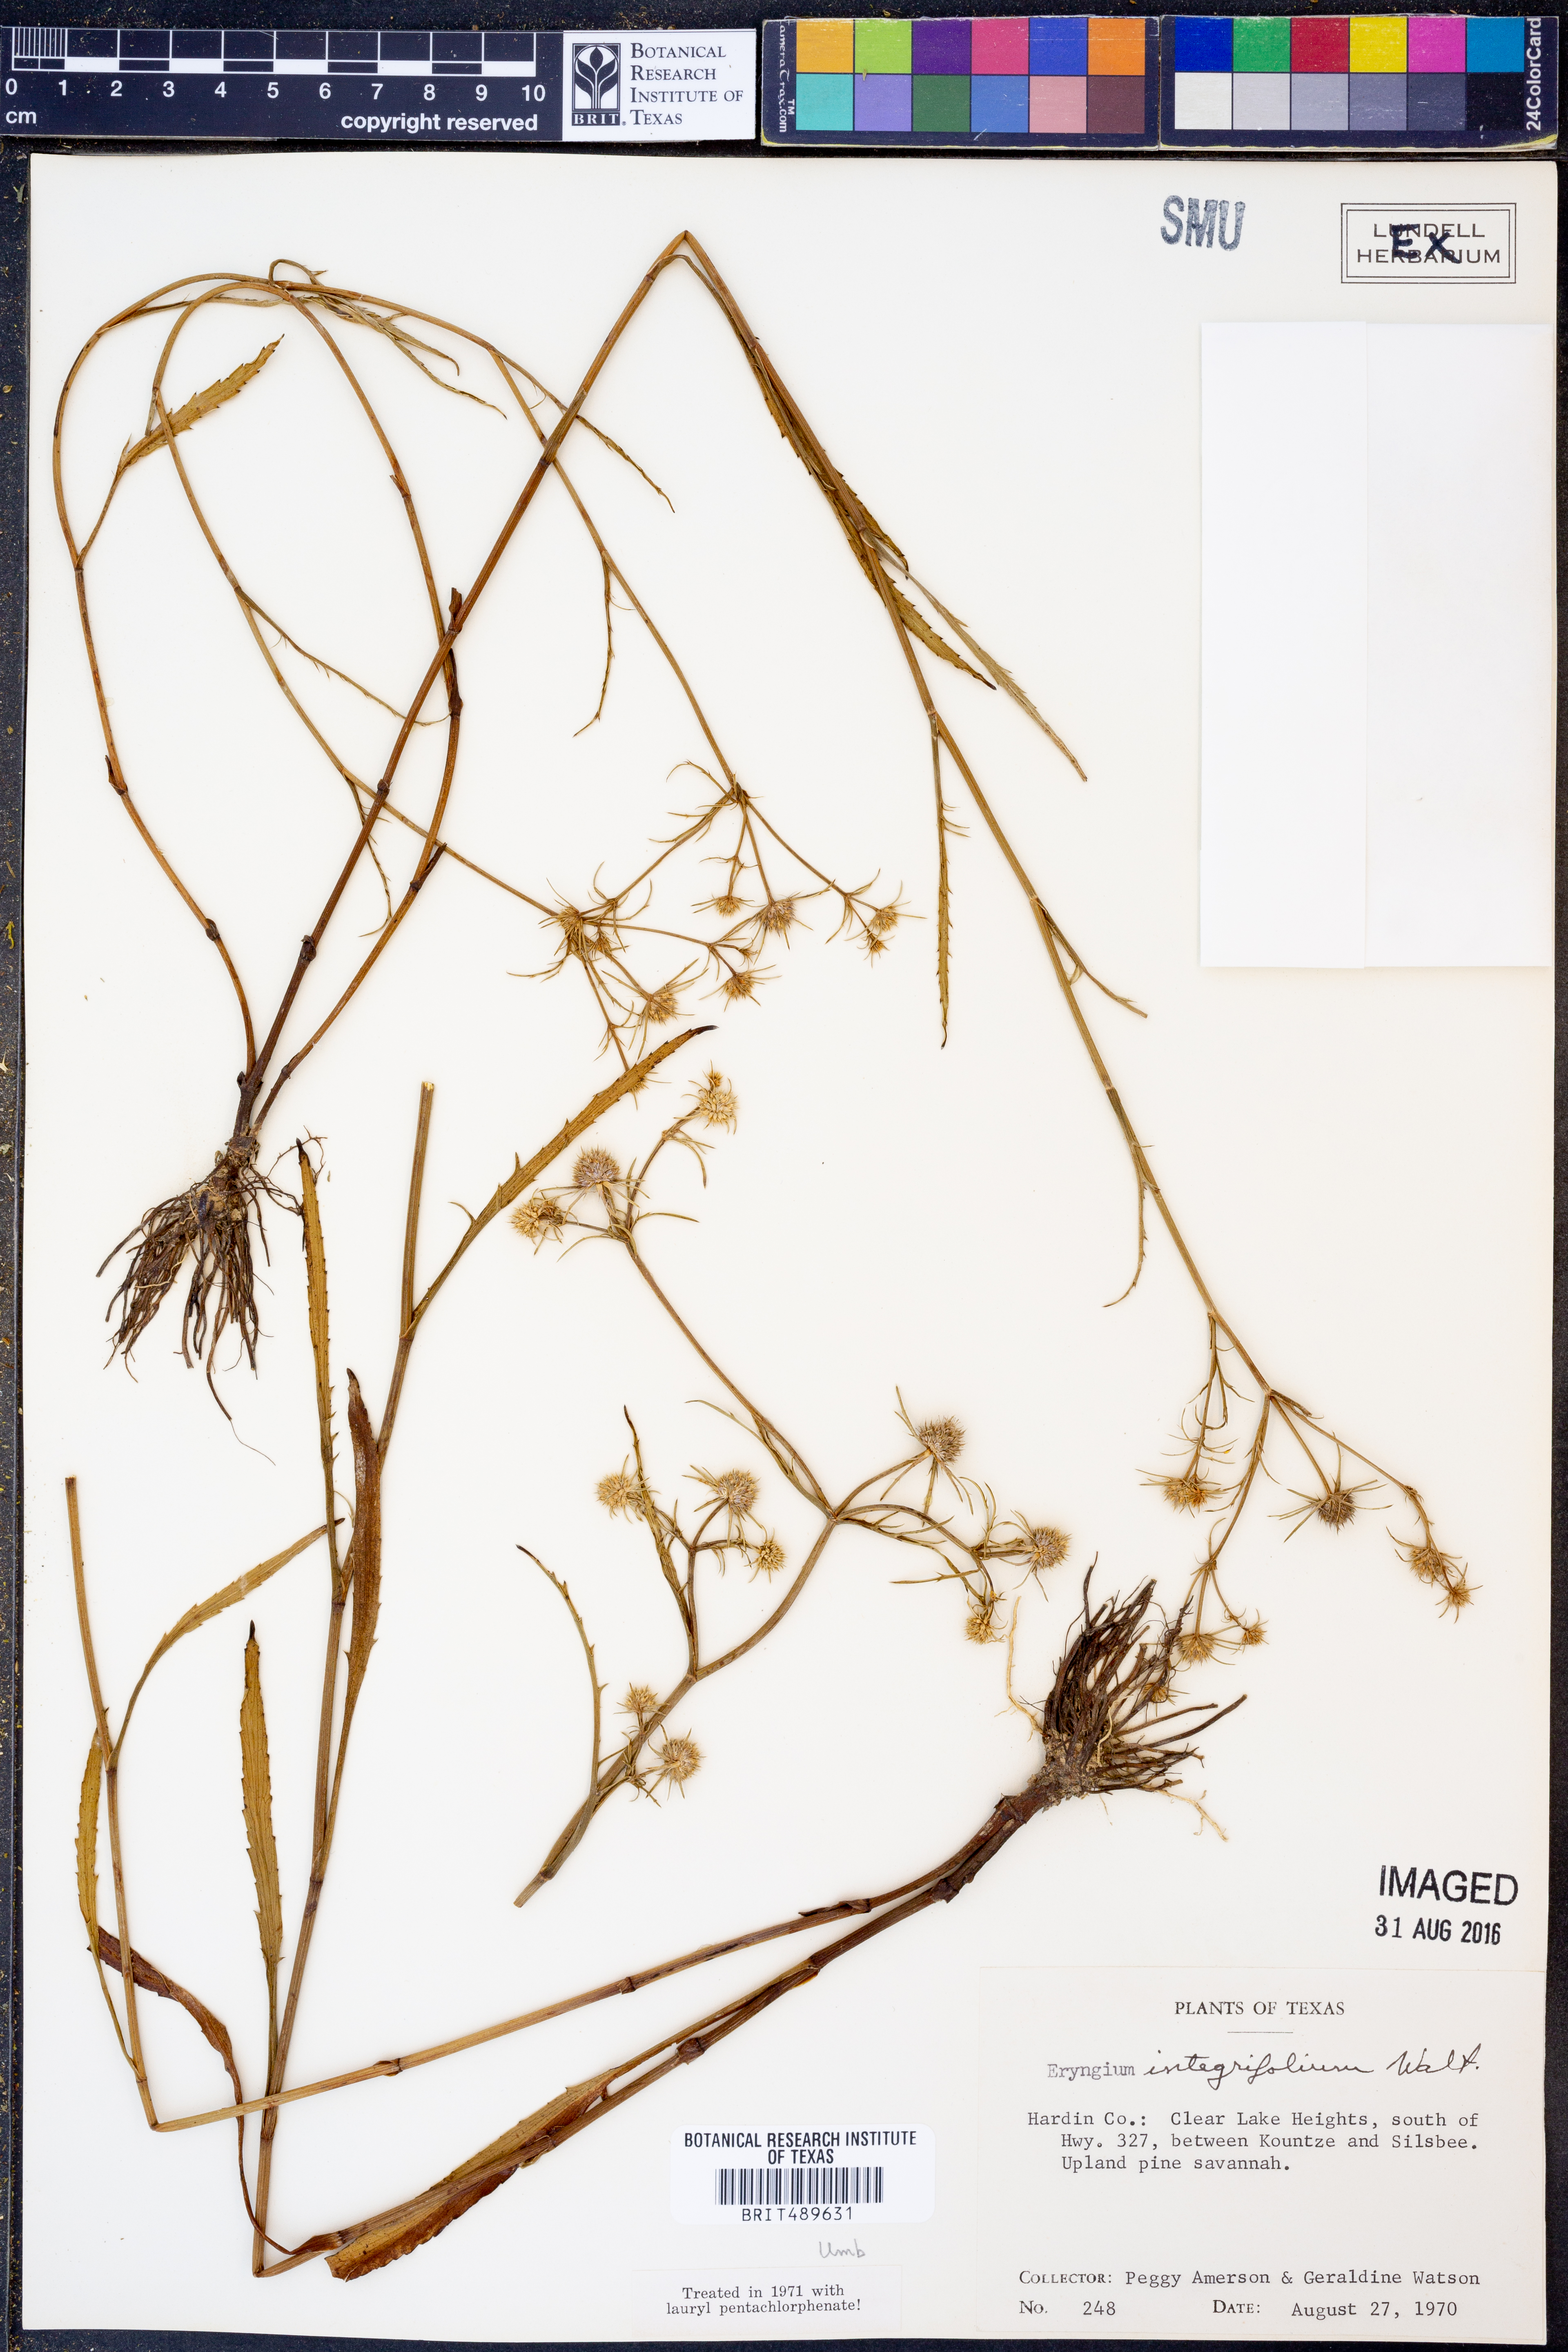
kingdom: Plantae
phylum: Tracheophyta
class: Magnoliopsida
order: Apiales
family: Apiaceae
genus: Eryngium
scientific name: Eryngium integrifolium
